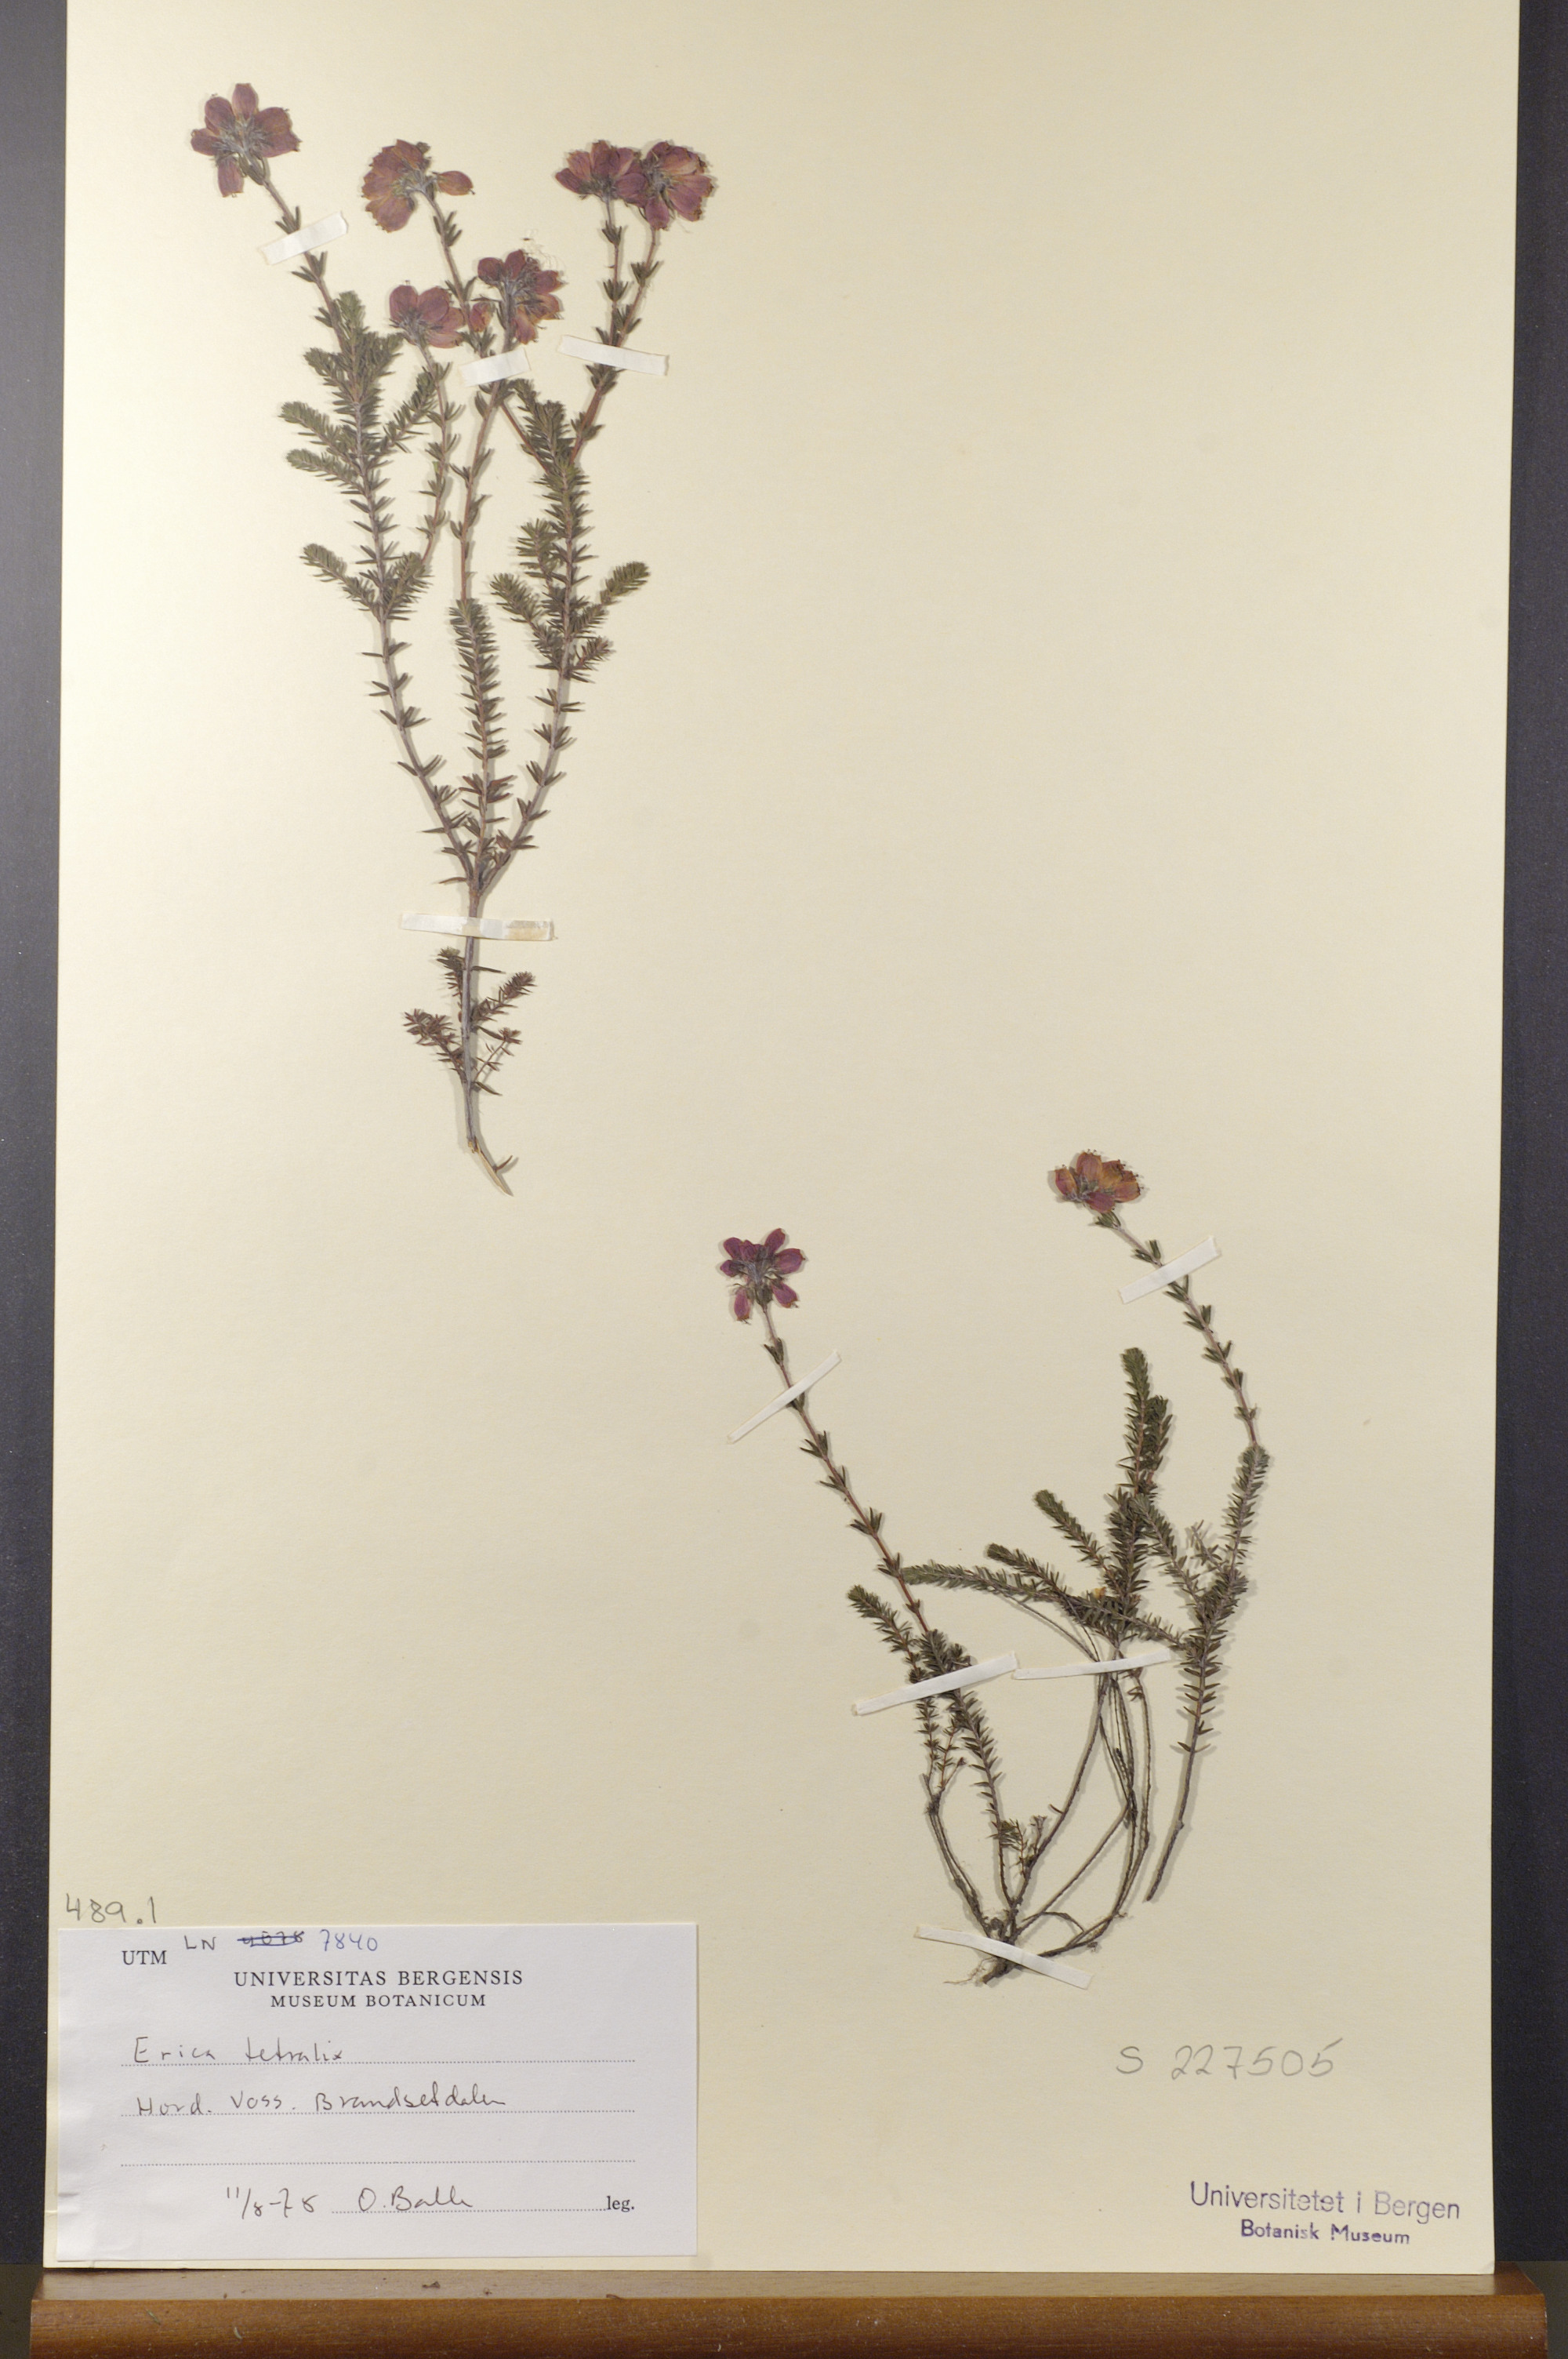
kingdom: Plantae
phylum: Tracheophyta
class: Magnoliopsida
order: Ericales
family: Ericaceae
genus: Erica
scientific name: Erica tetralix
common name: Cross-leaved heath
